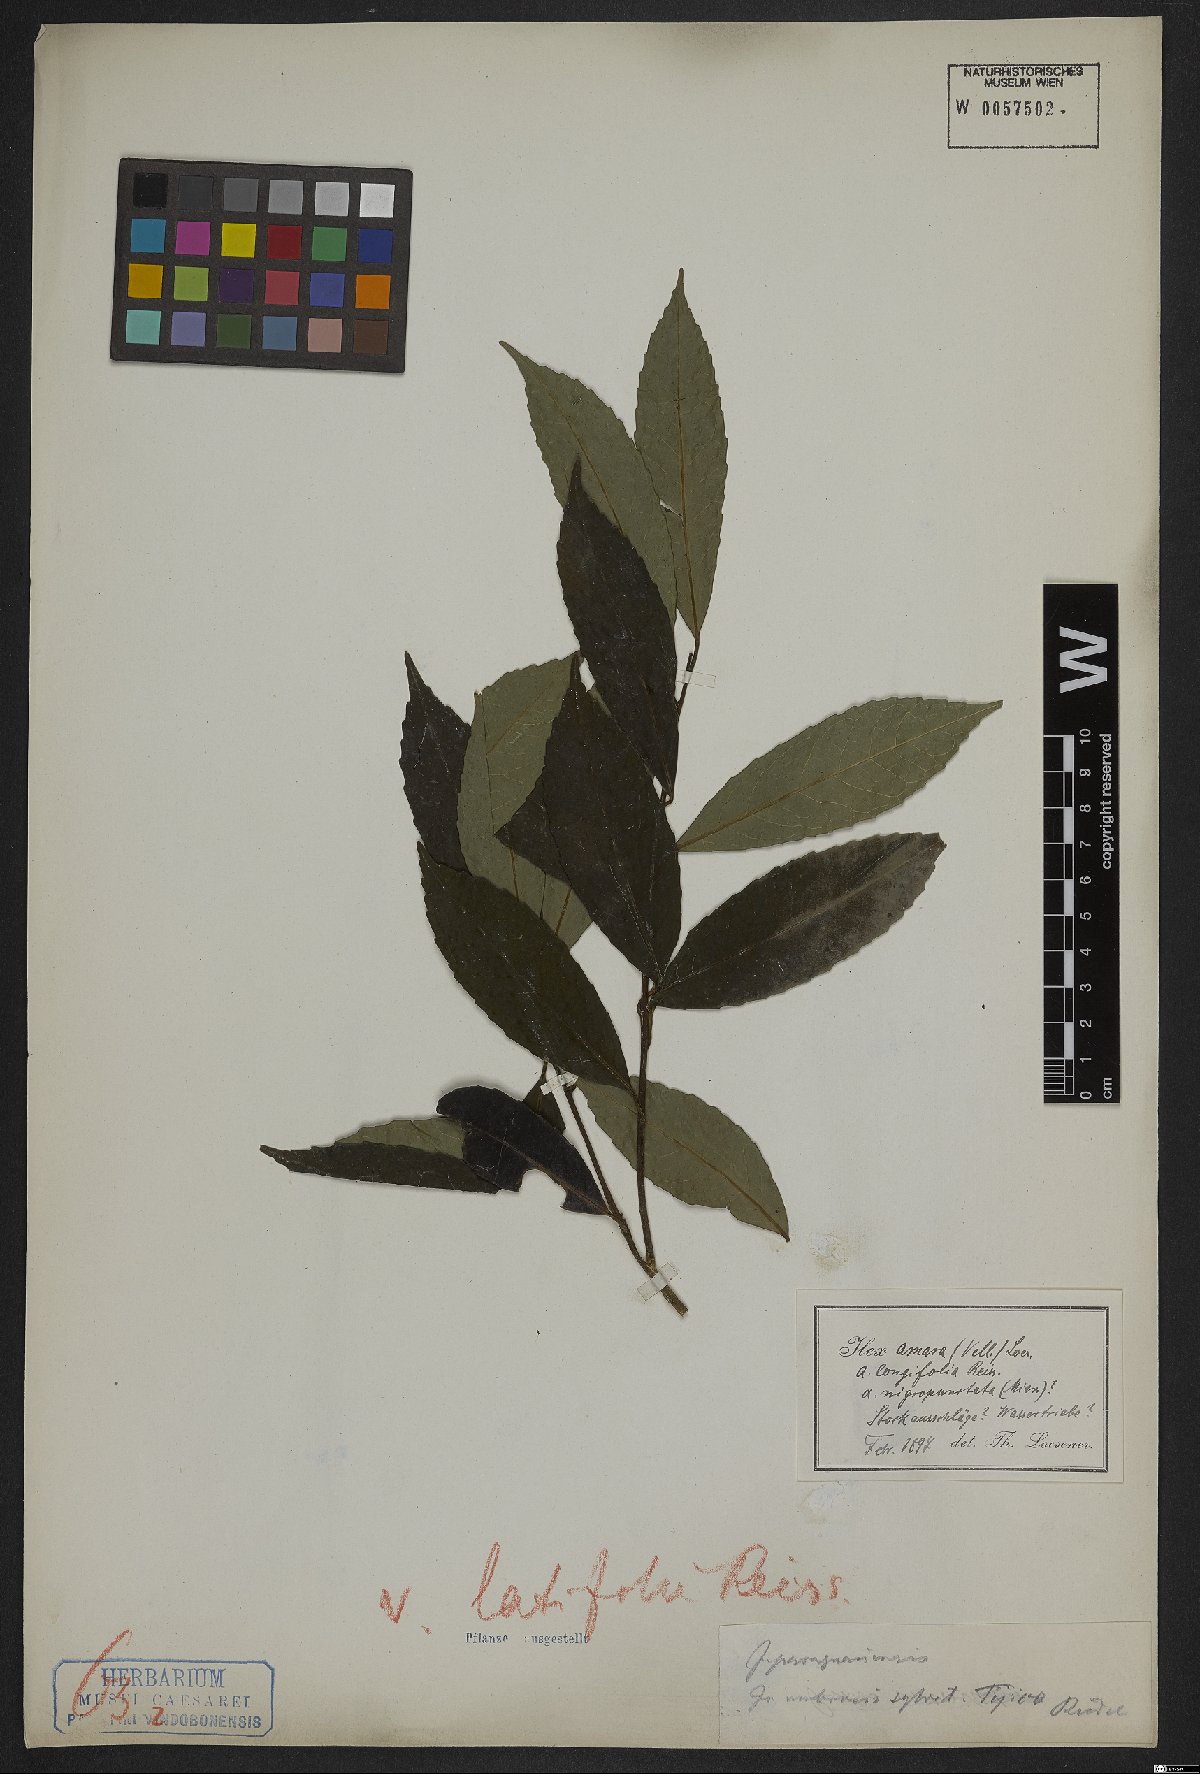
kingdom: Plantae
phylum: Tracheophyta
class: Magnoliopsida
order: Aquifoliales
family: Aquifoliaceae
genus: Ilex
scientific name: Ilex dumosa
